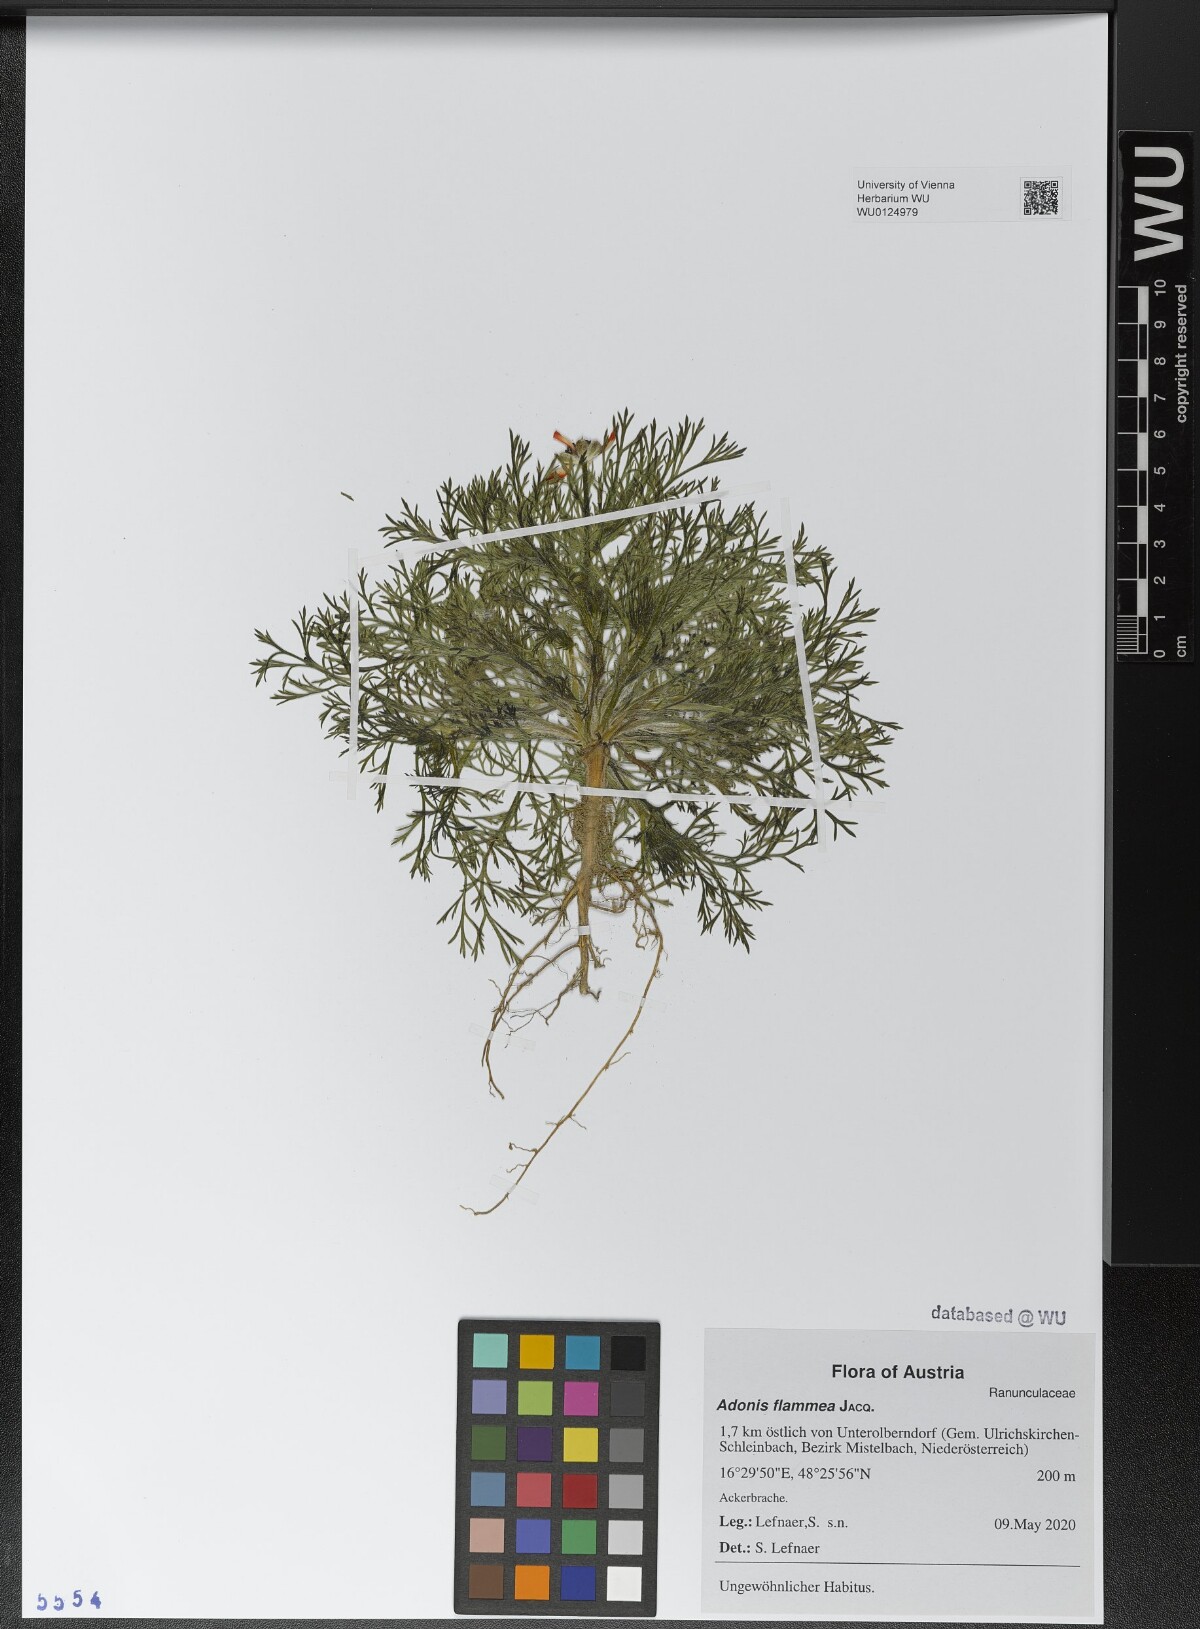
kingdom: Plantae
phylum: Tracheophyta
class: Magnoliopsida
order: Ranunculales
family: Ranunculaceae
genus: Adonis
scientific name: Adonis flammea
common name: Large pheasant's-eye
